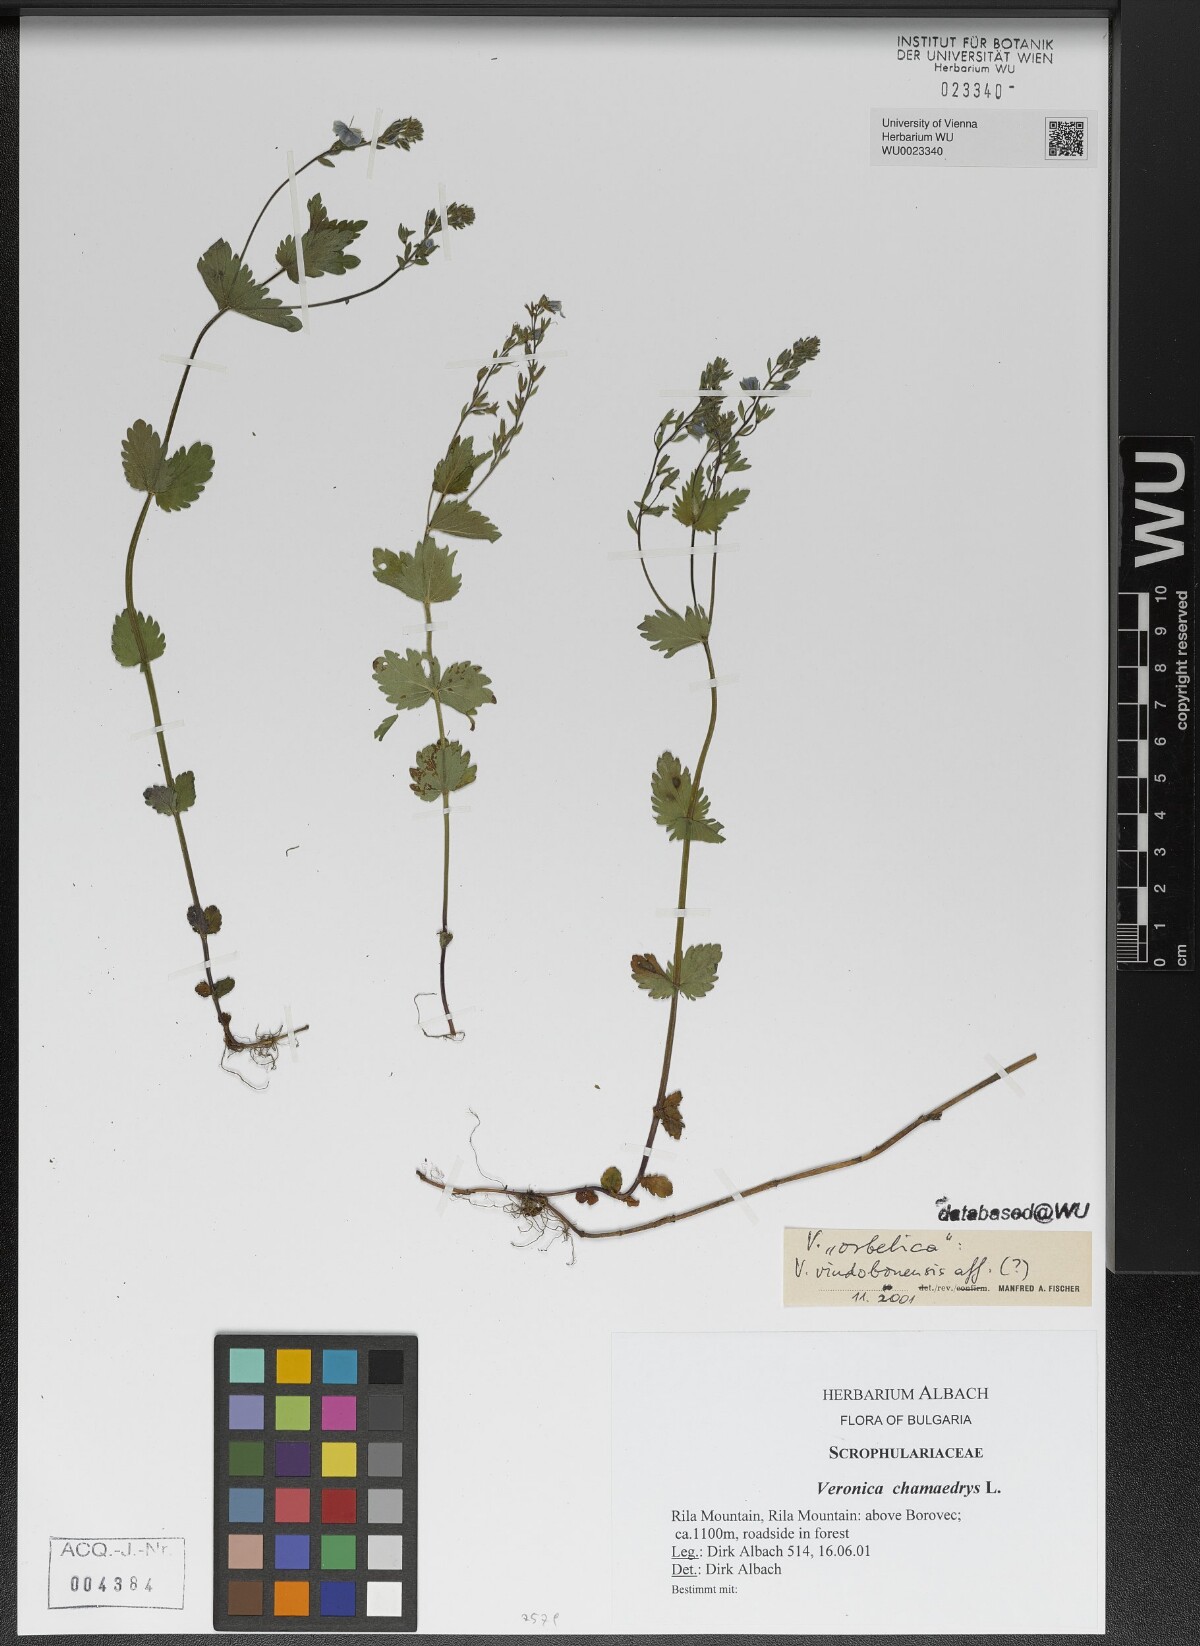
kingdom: Plantae
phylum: Tracheophyta
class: Magnoliopsida
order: Lamiales
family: Plantaginaceae
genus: Veronica
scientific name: Veronica vindobonensis
